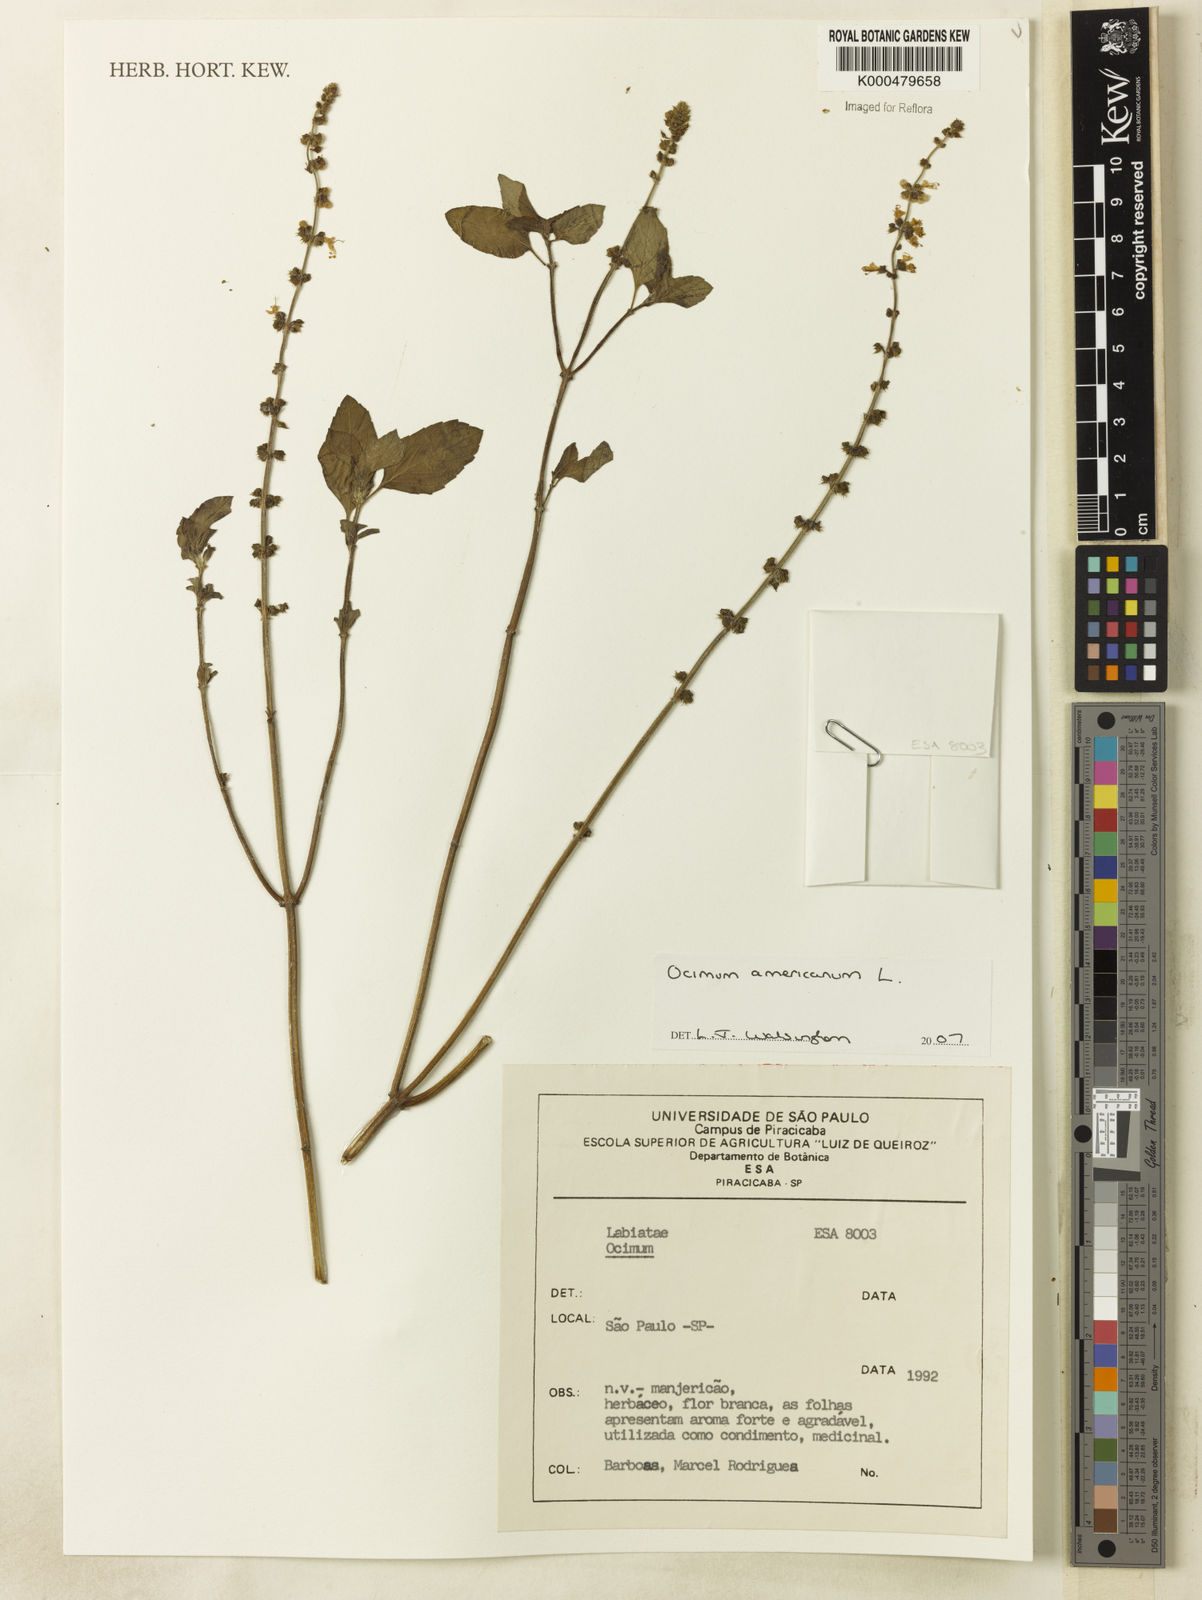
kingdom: Plantae
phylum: Tracheophyta
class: Magnoliopsida
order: Lamiales
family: Lamiaceae
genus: Ocimum
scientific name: Ocimum americanum
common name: American basil
